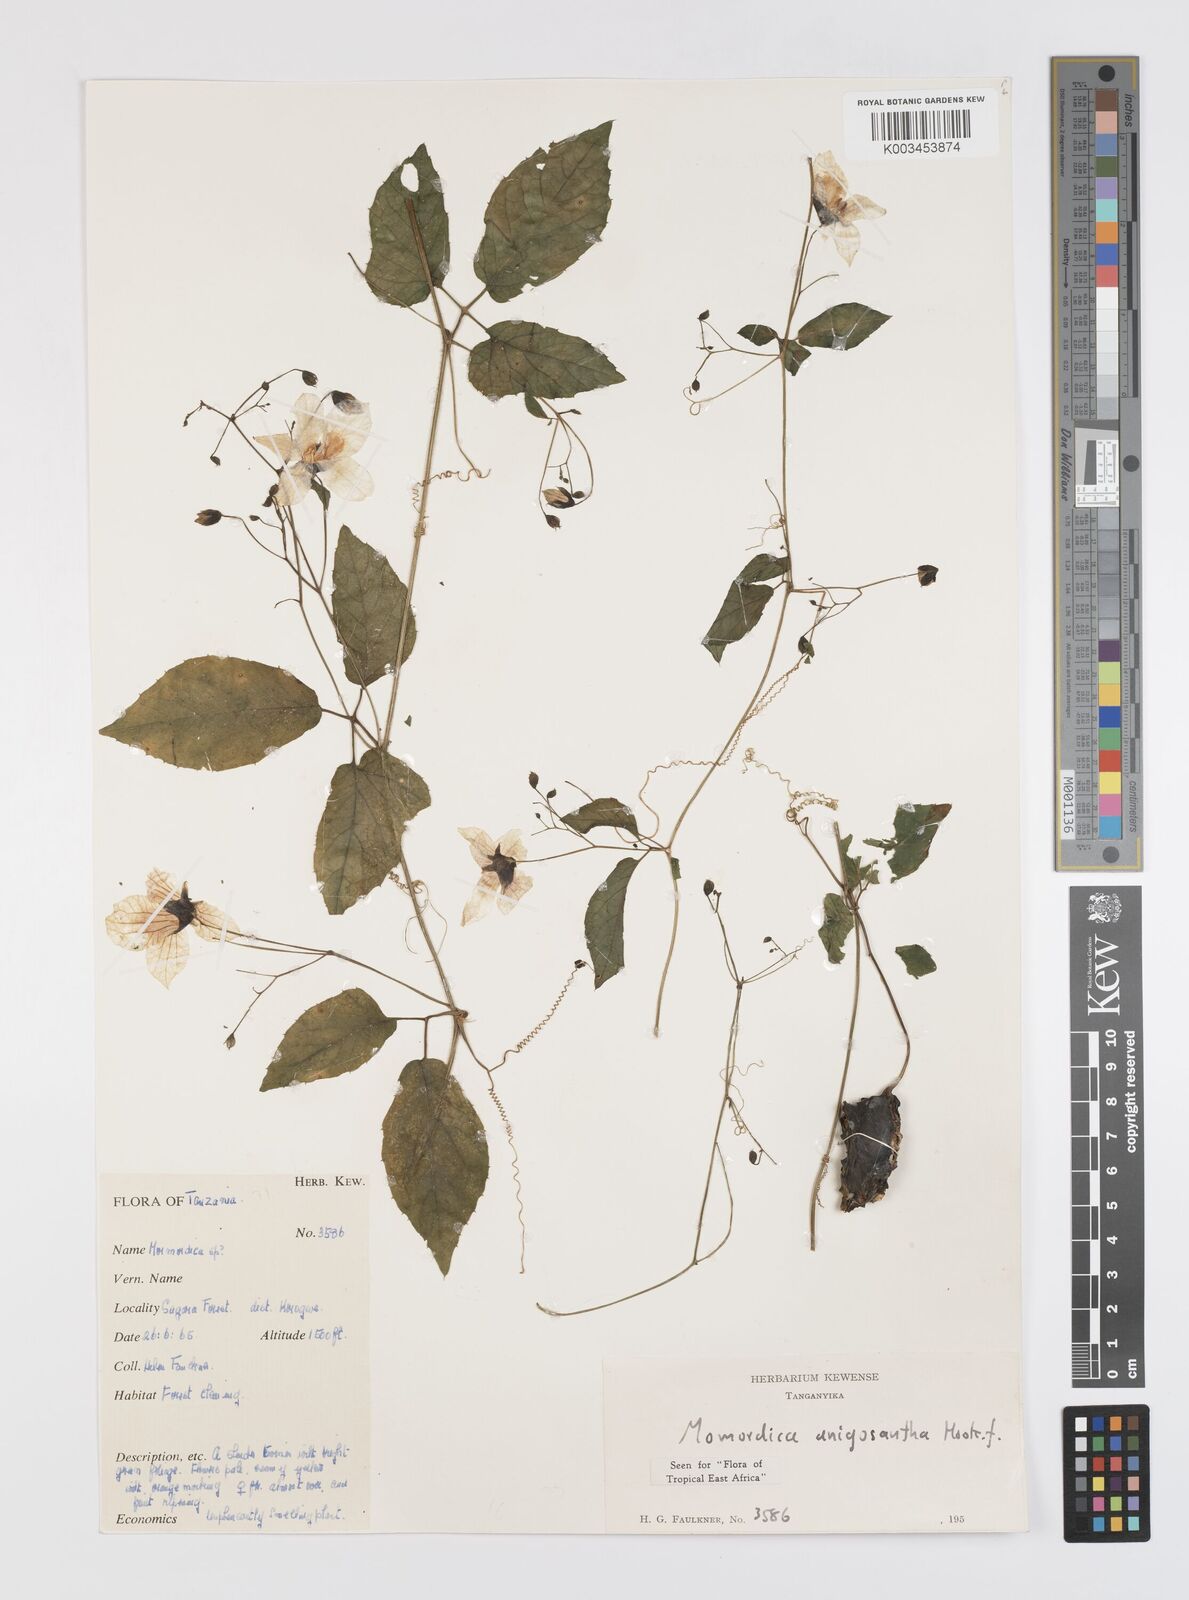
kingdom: Plantae
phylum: Tracheophyta
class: Magnoliopsida
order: Cucurbitales
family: Cucurbitaceae
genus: Momordica
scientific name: Momordica anigosantha
